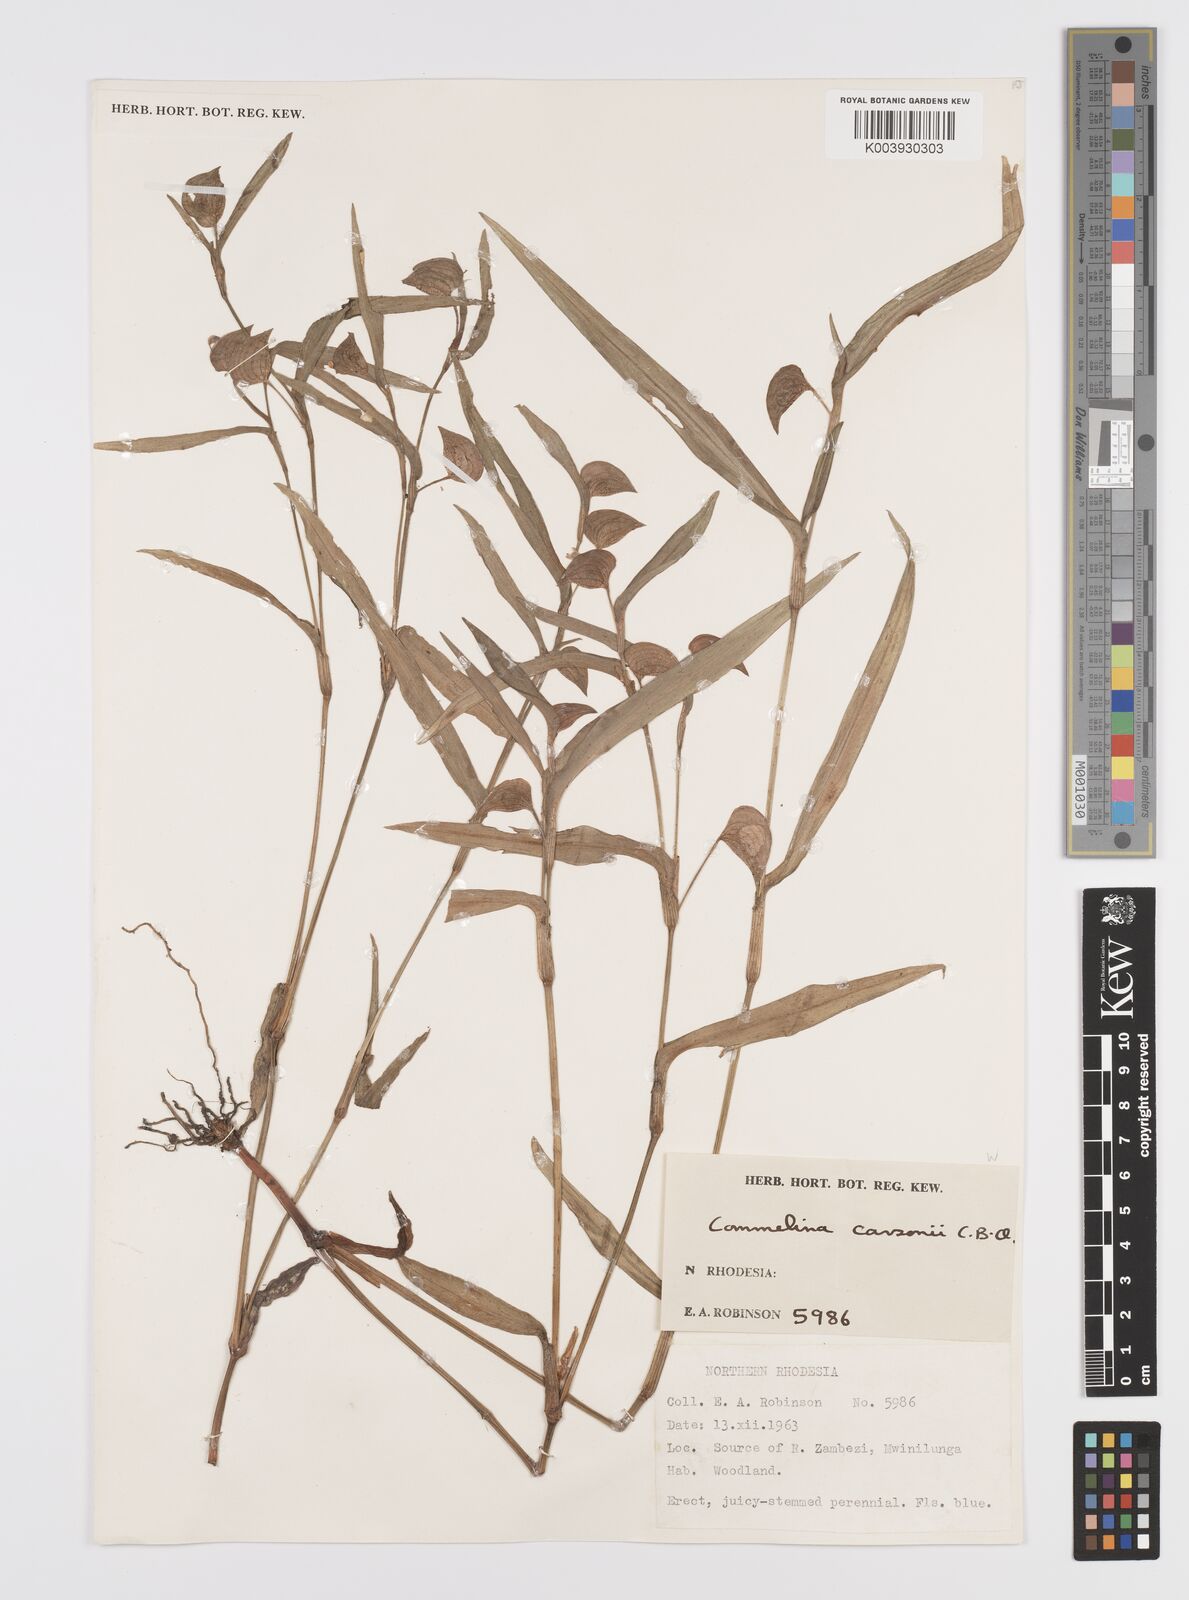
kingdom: Plantae
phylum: Tracheophyta
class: Liliopsida
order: Commelinales
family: Commelinaceae
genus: Commelina
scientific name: Commelina schweinfurthii
